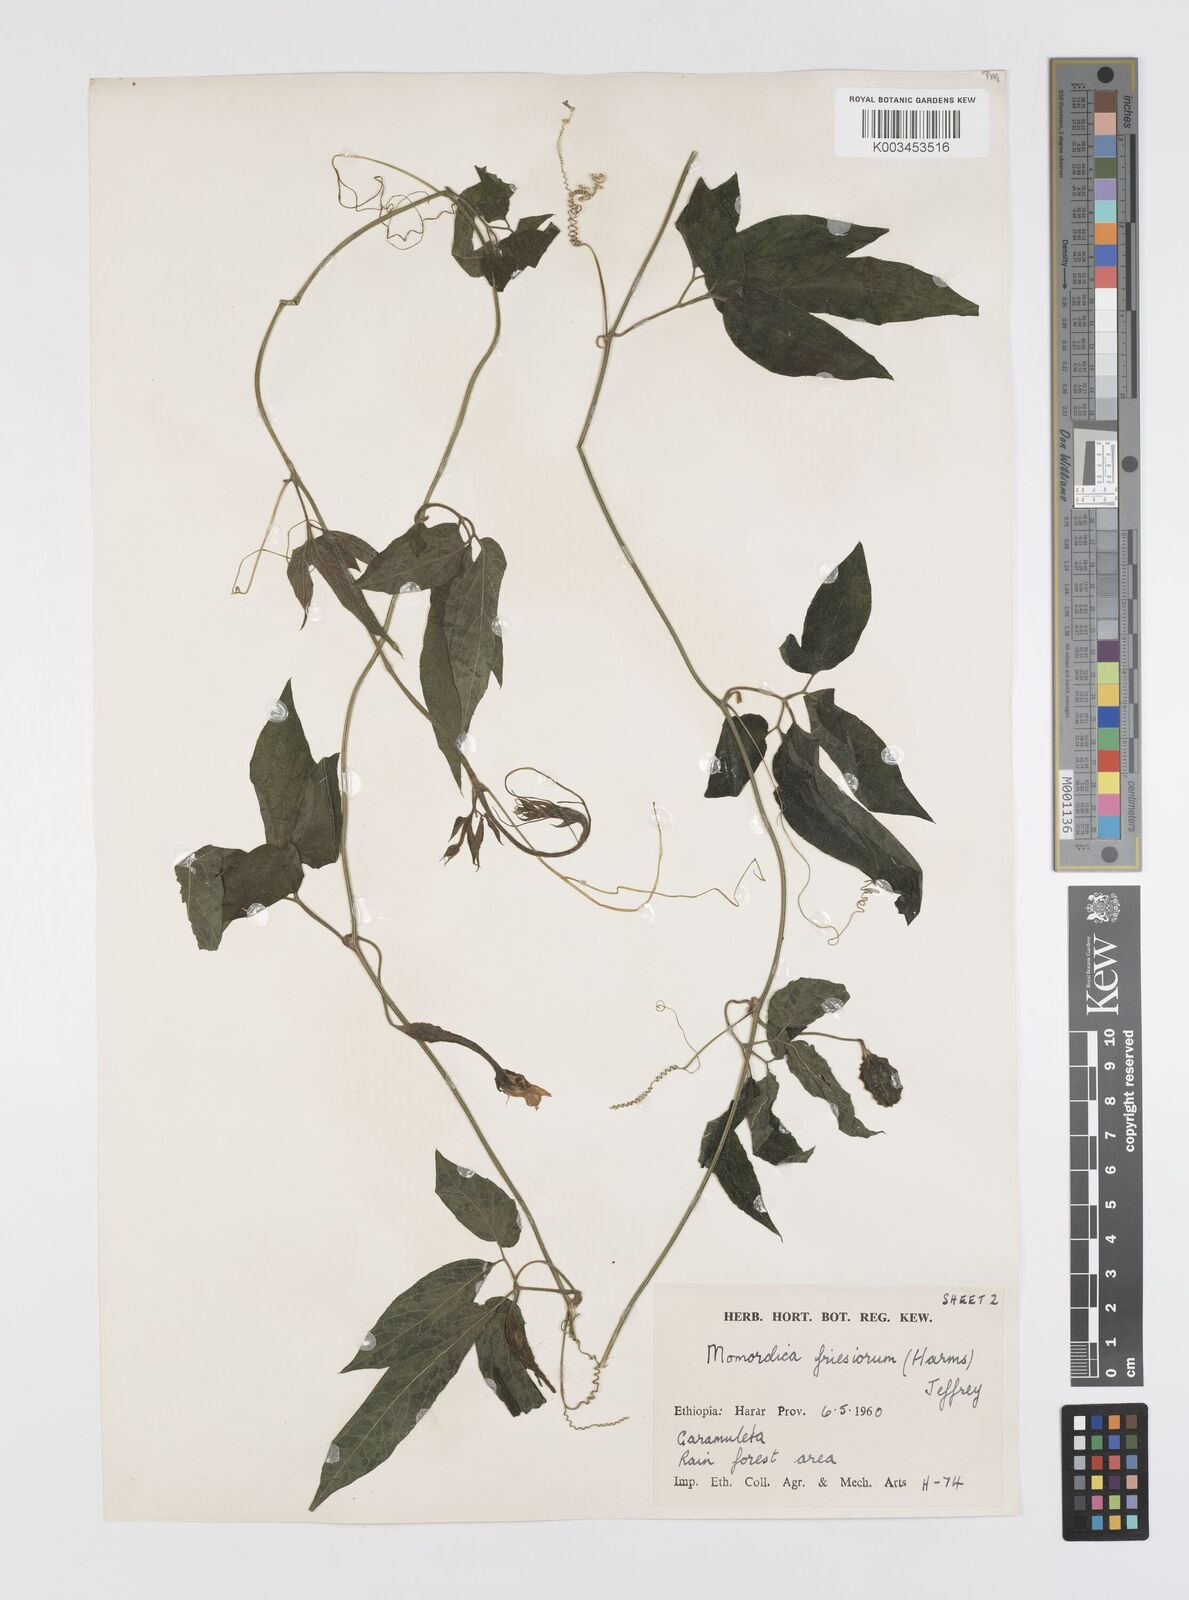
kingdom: Plantae
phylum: Tracheophyta
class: Magnoliopsida
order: Cucurbitales
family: Cucurbitaceae
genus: Momordica
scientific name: Momordica friesiorum
